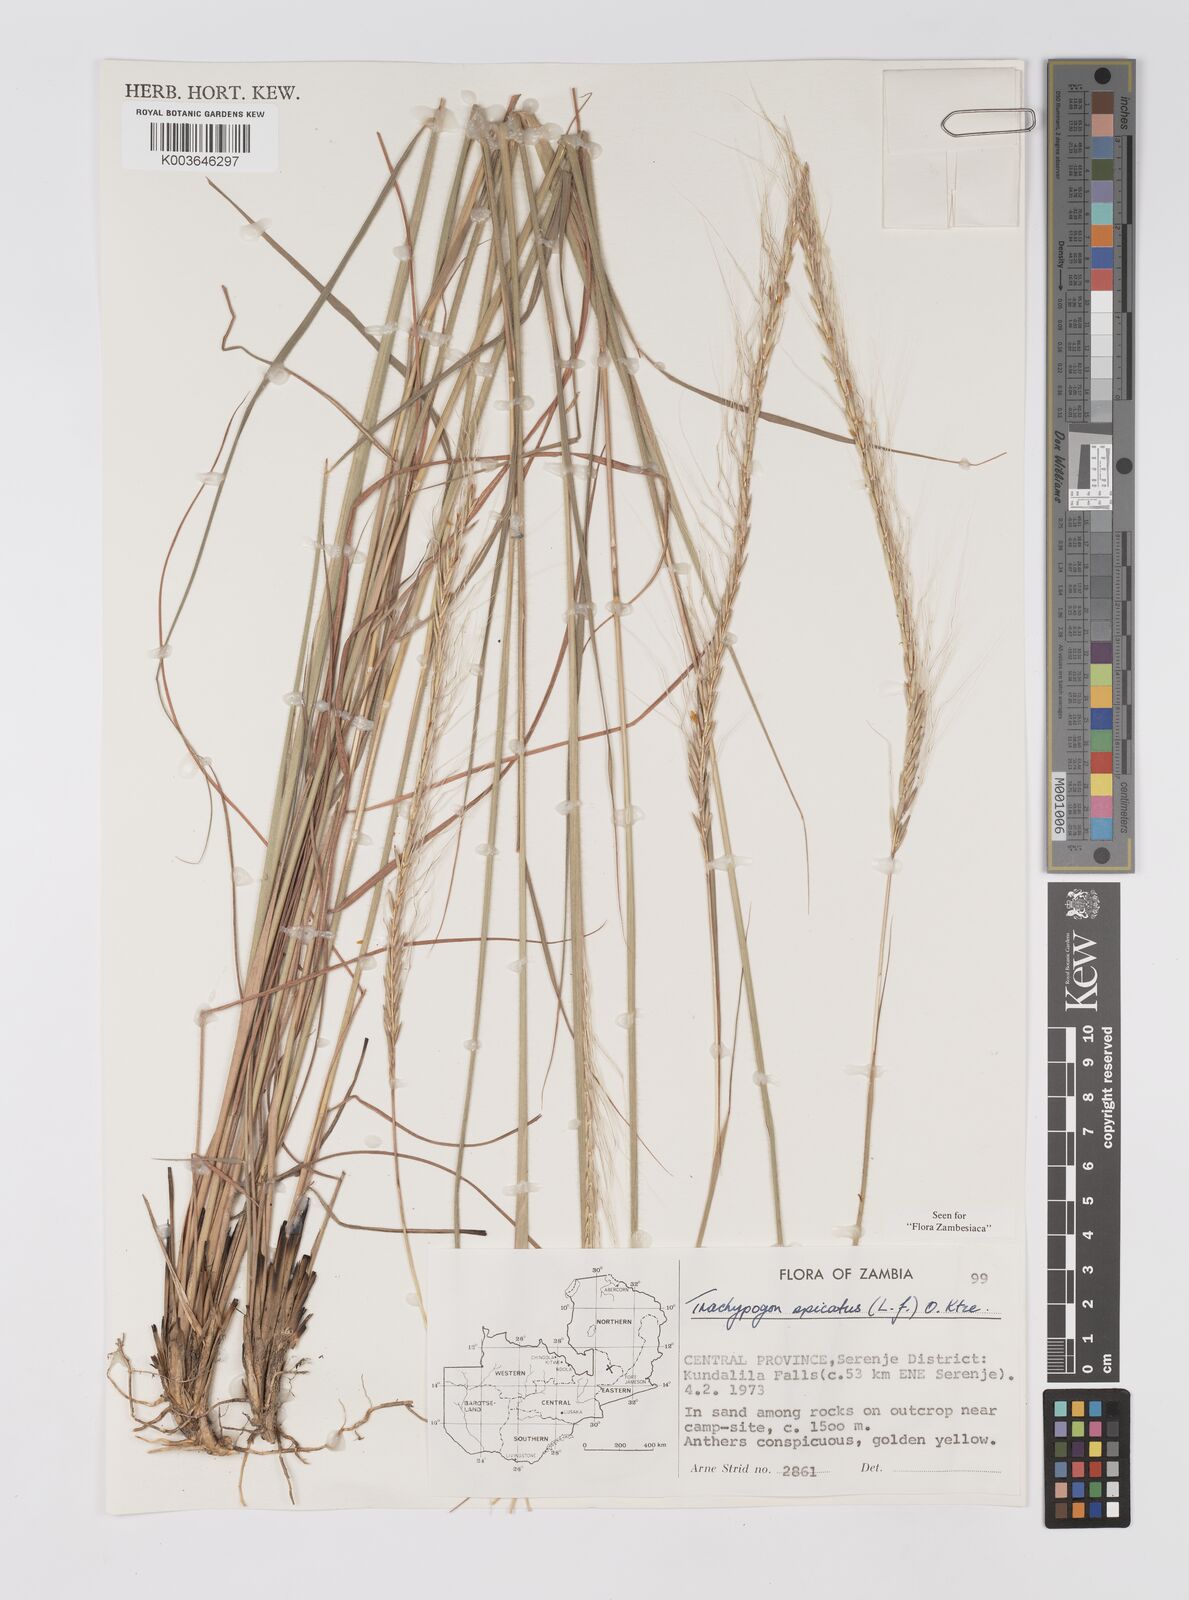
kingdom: Plantae
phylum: Tracheophyta
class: Liliopsida
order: Poales
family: Poaceae
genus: Trachypogon
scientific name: Trachypogon spicatus
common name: Crinkle-awn
